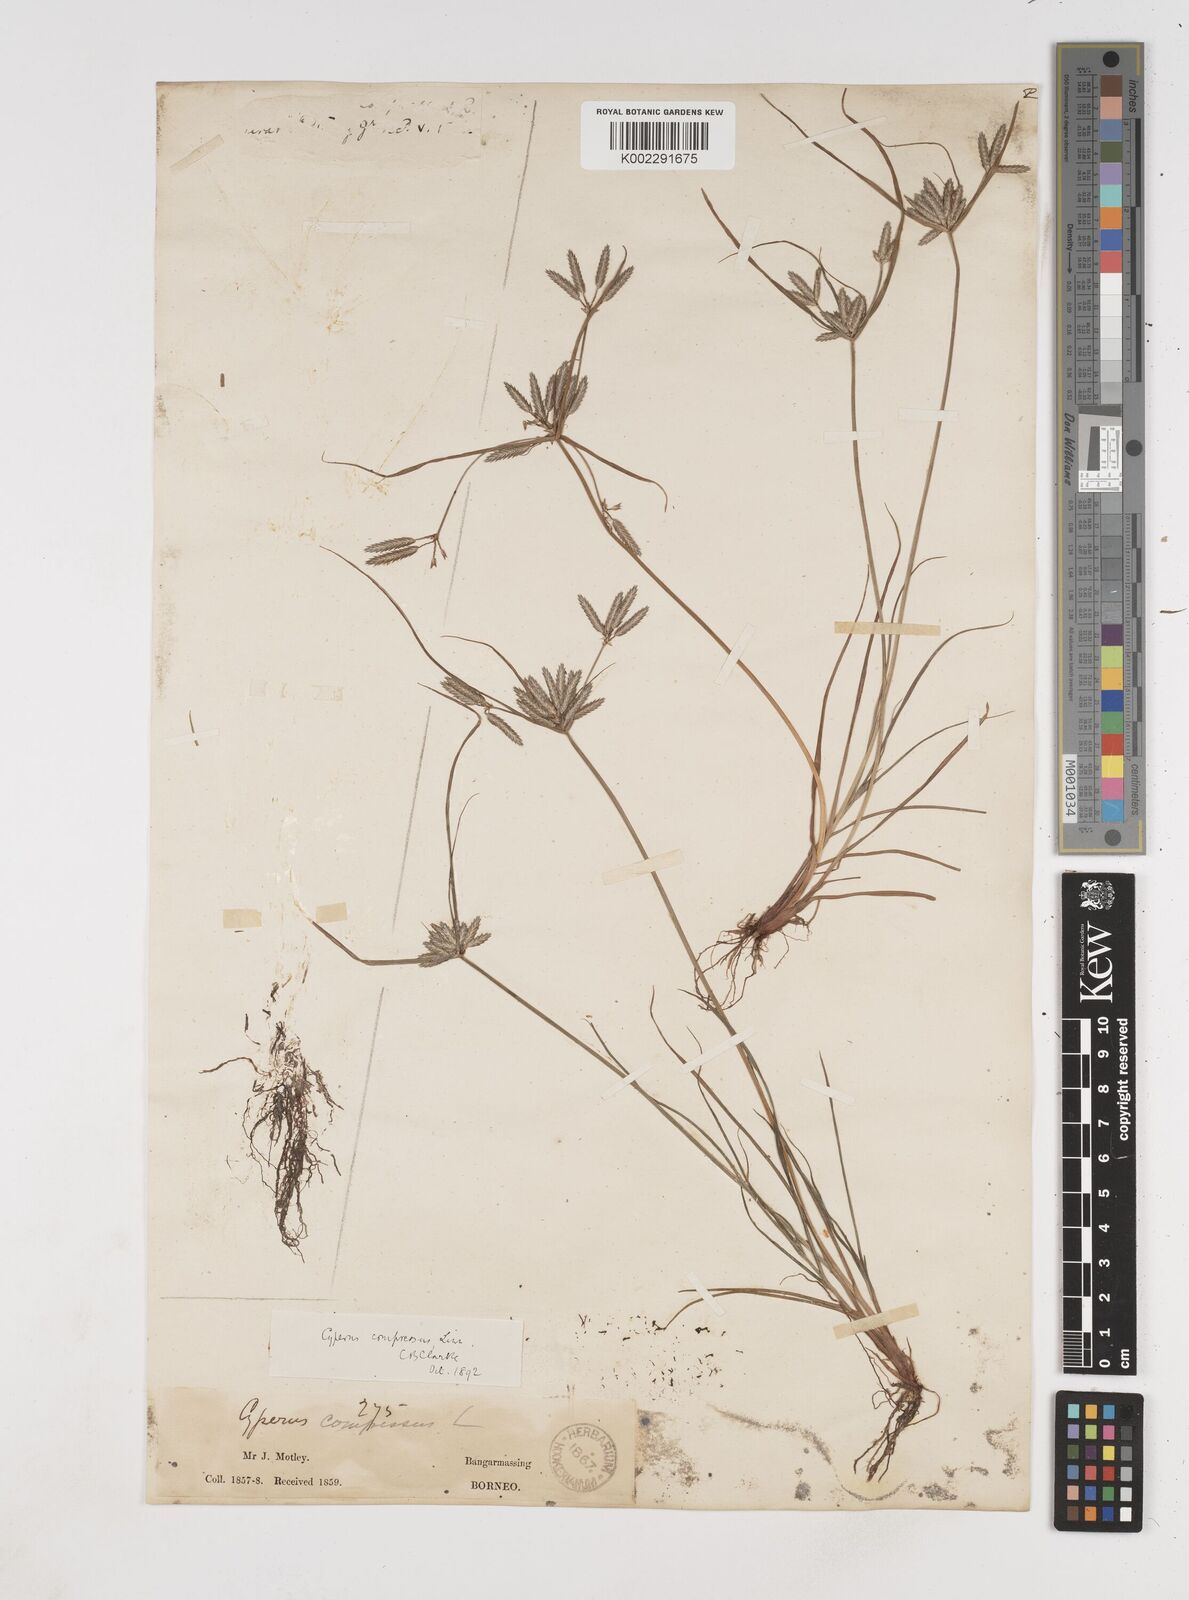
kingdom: Plantae
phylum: Tracheophyta
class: Liliopsida
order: Poales
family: Cyperaceae
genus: Cyperus
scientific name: Cyperus compressus
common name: Poorland flatsedge
